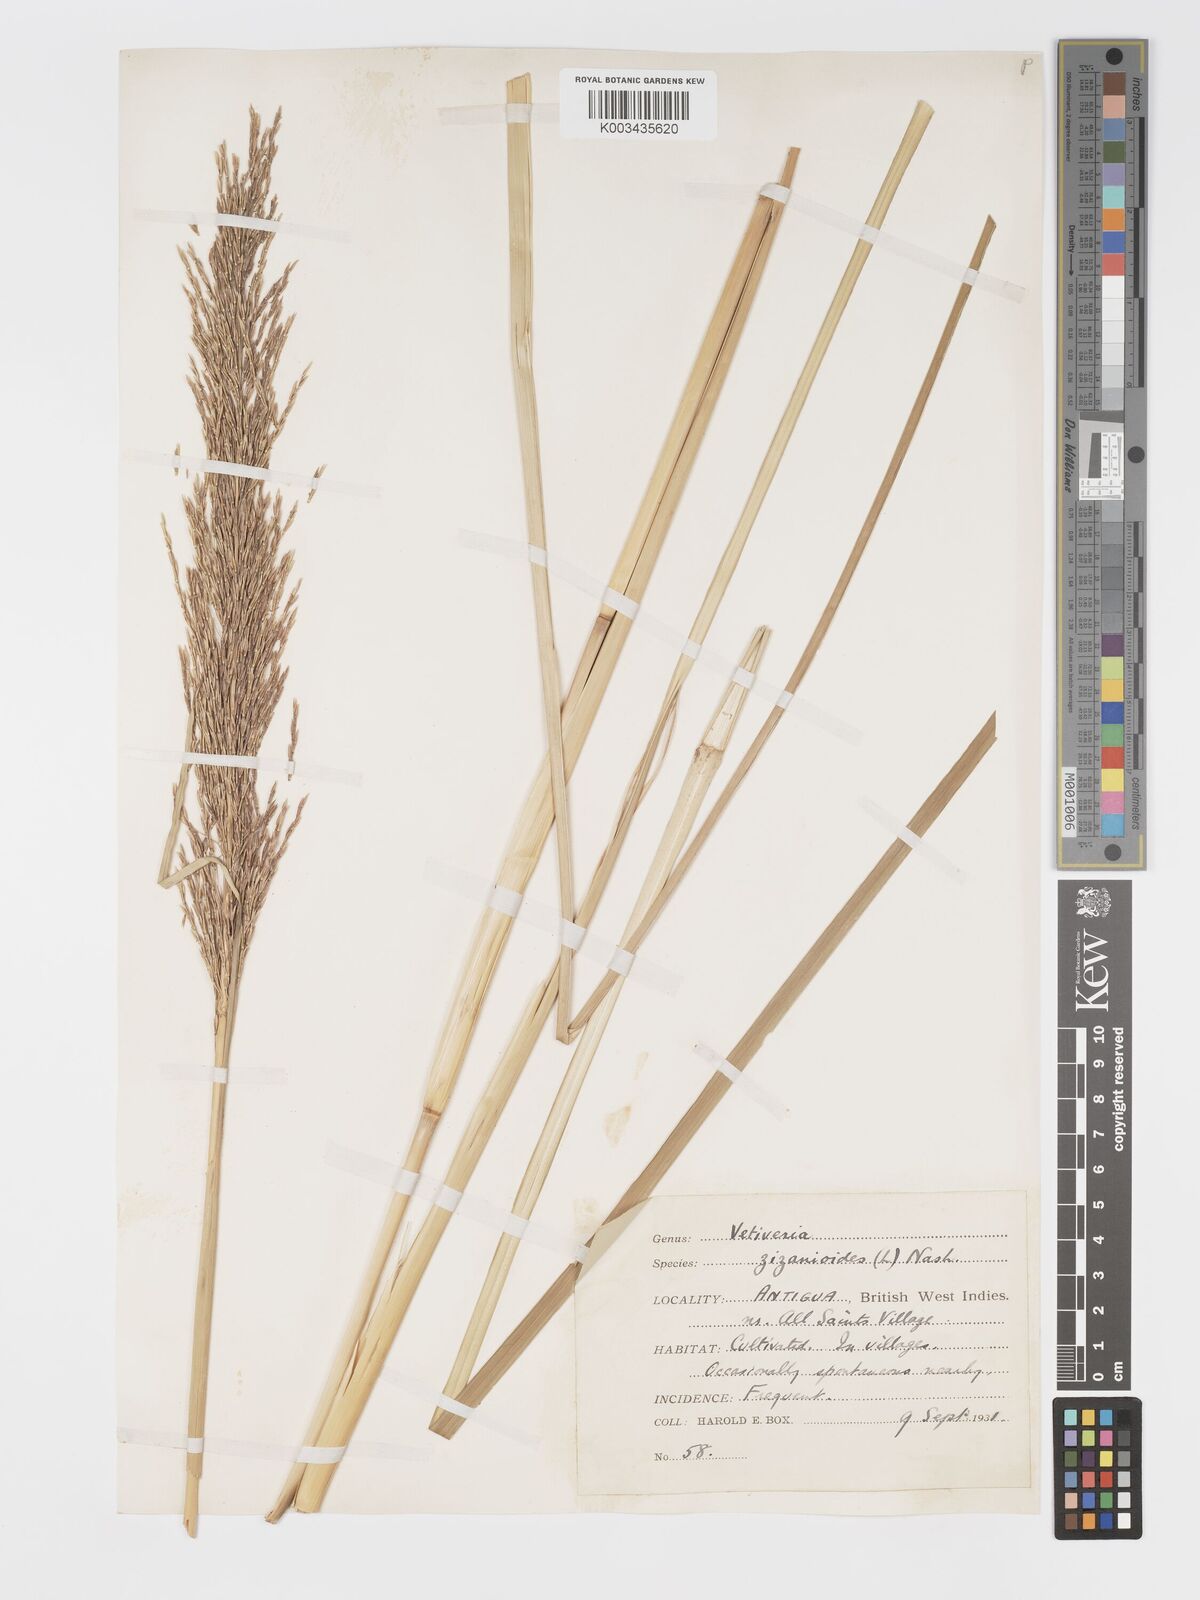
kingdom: Plantae
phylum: Tracheophyta
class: Liliopsida
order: Poales
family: Poaceae
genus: Chrysopogon
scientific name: Chrysopogon zizanioides
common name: False beardgrass
